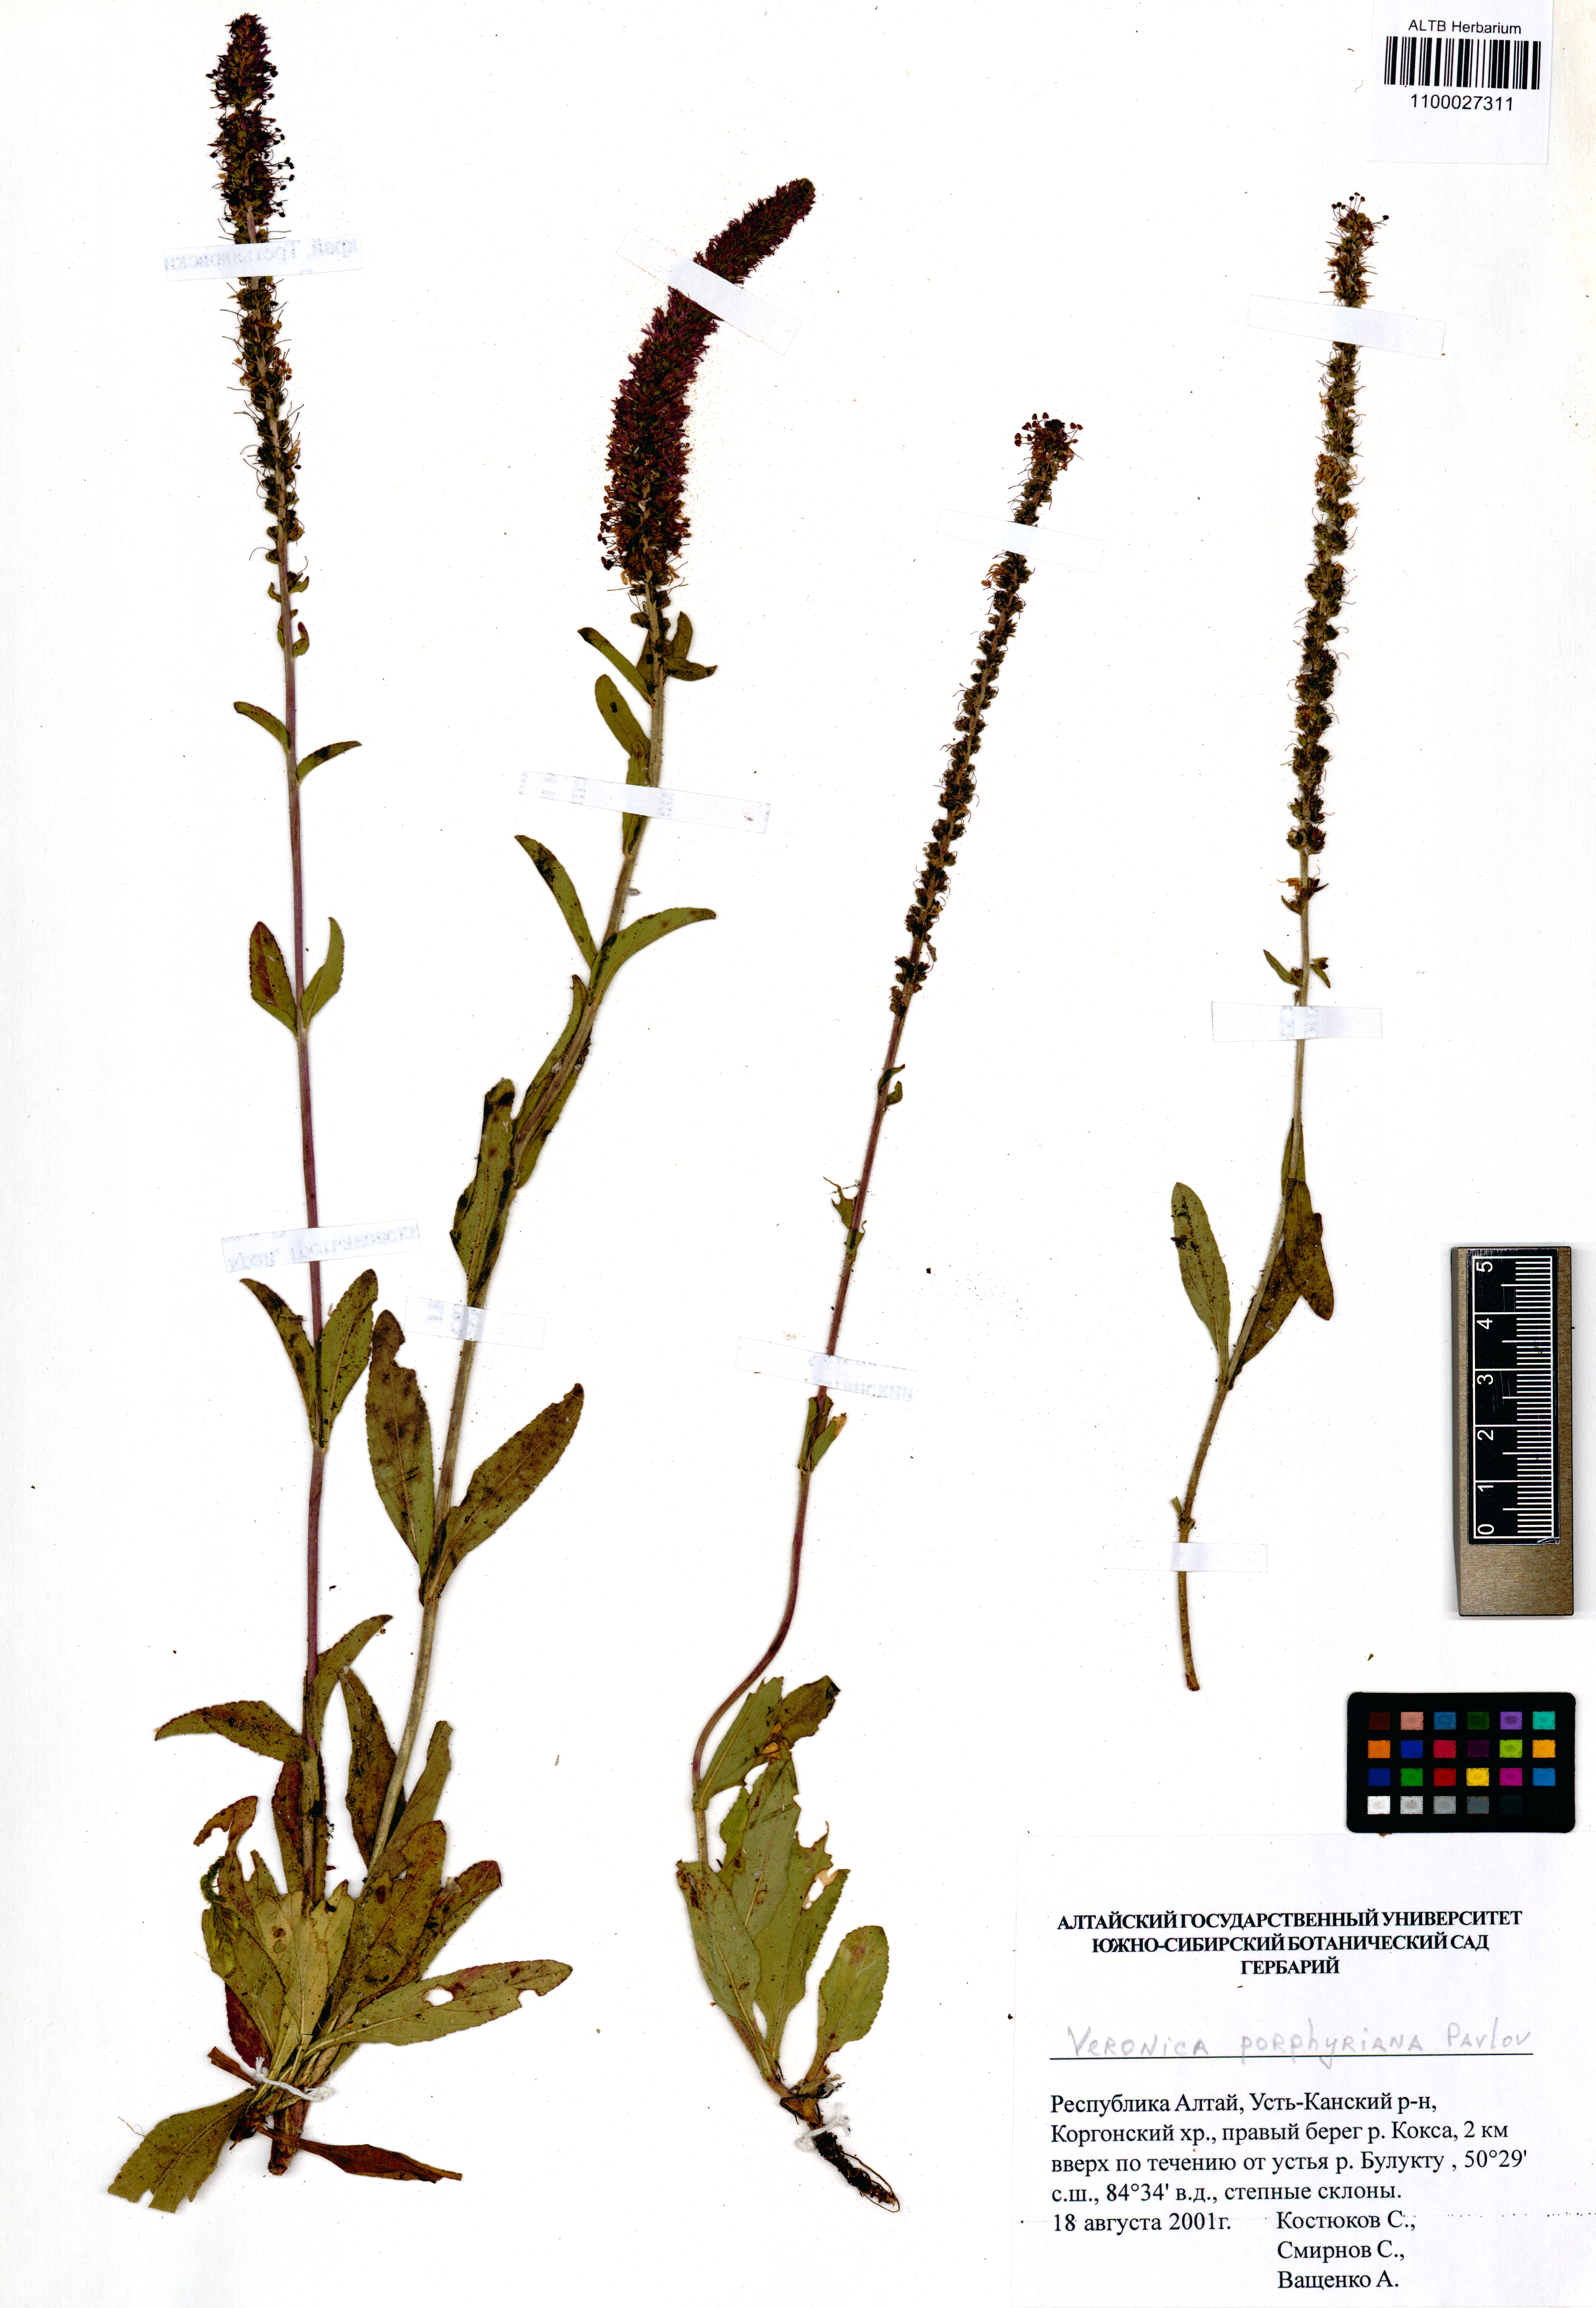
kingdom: Plantae
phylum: Tracheophyta
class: Magnoliopsida
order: Lamiales
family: Plantaginaceae
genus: Veronica
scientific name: Veronica porphyriana
